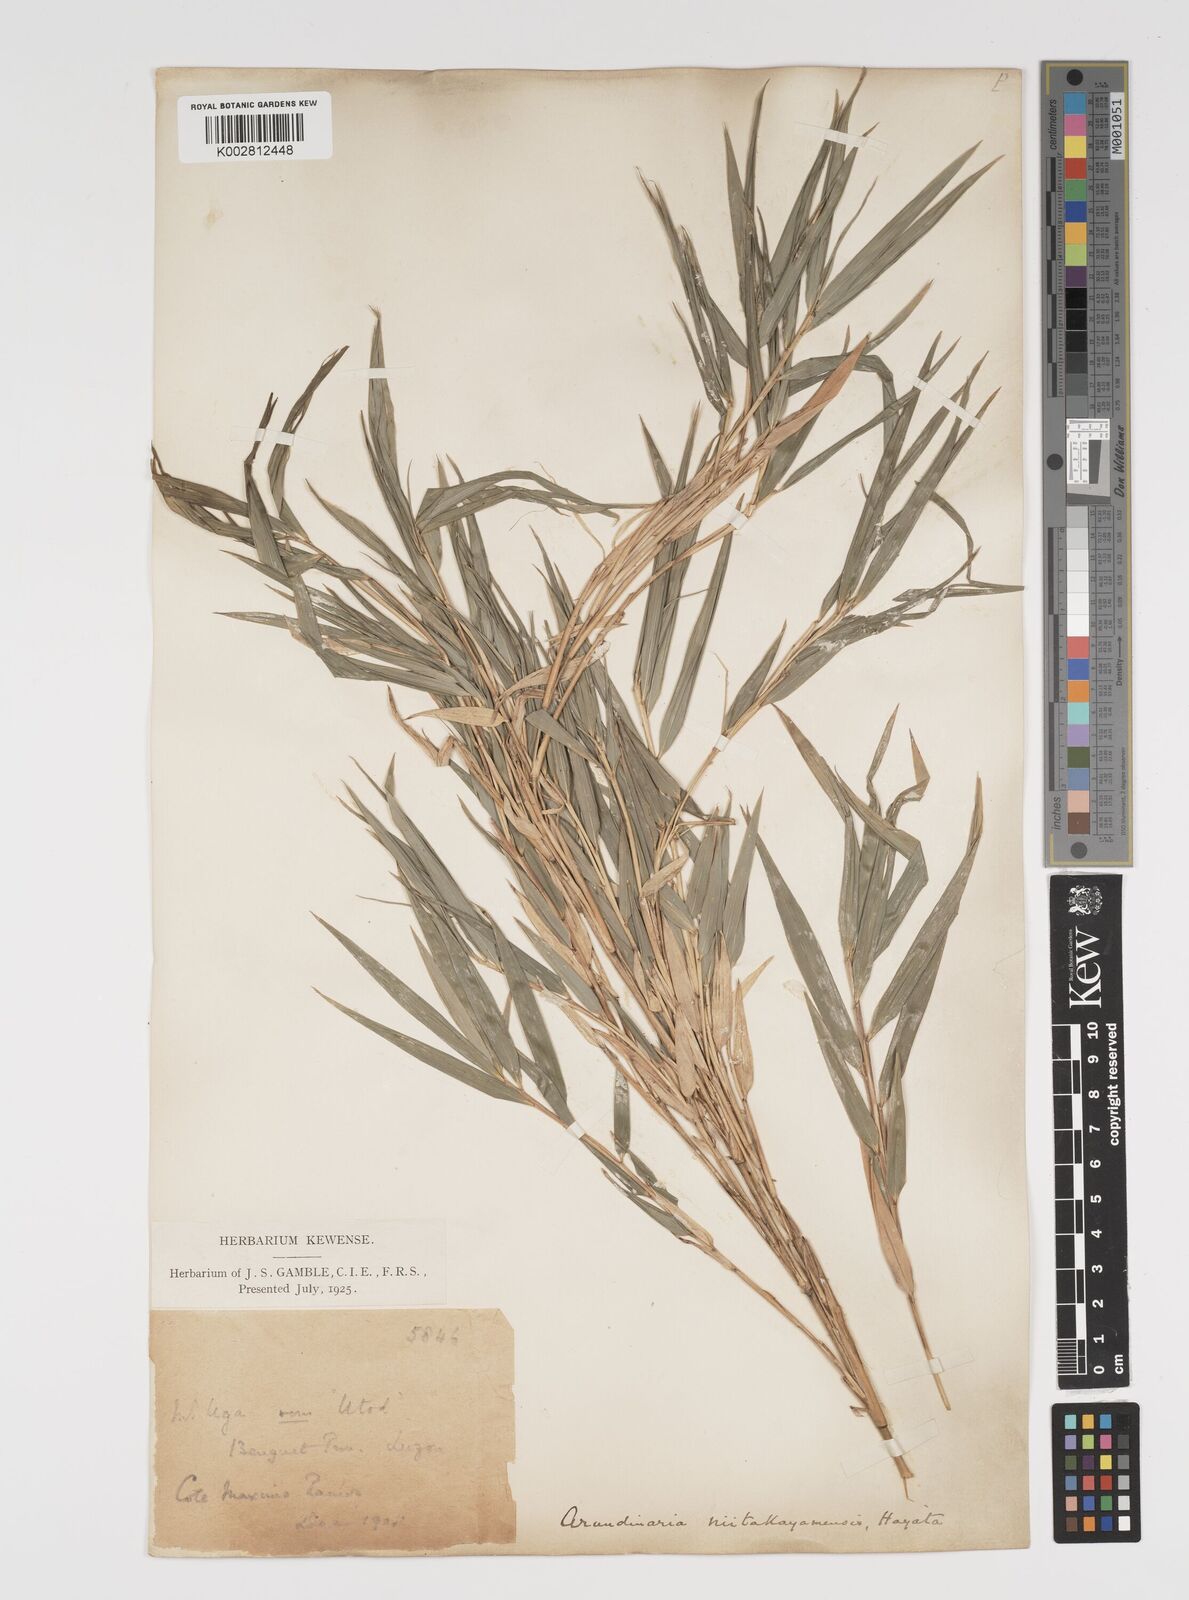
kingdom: Plantae
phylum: Tracheophyta
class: Liliopsida
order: Poales
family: Poaceae
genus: Yushania
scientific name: Yushania niitakayamensis
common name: Yushan cane
